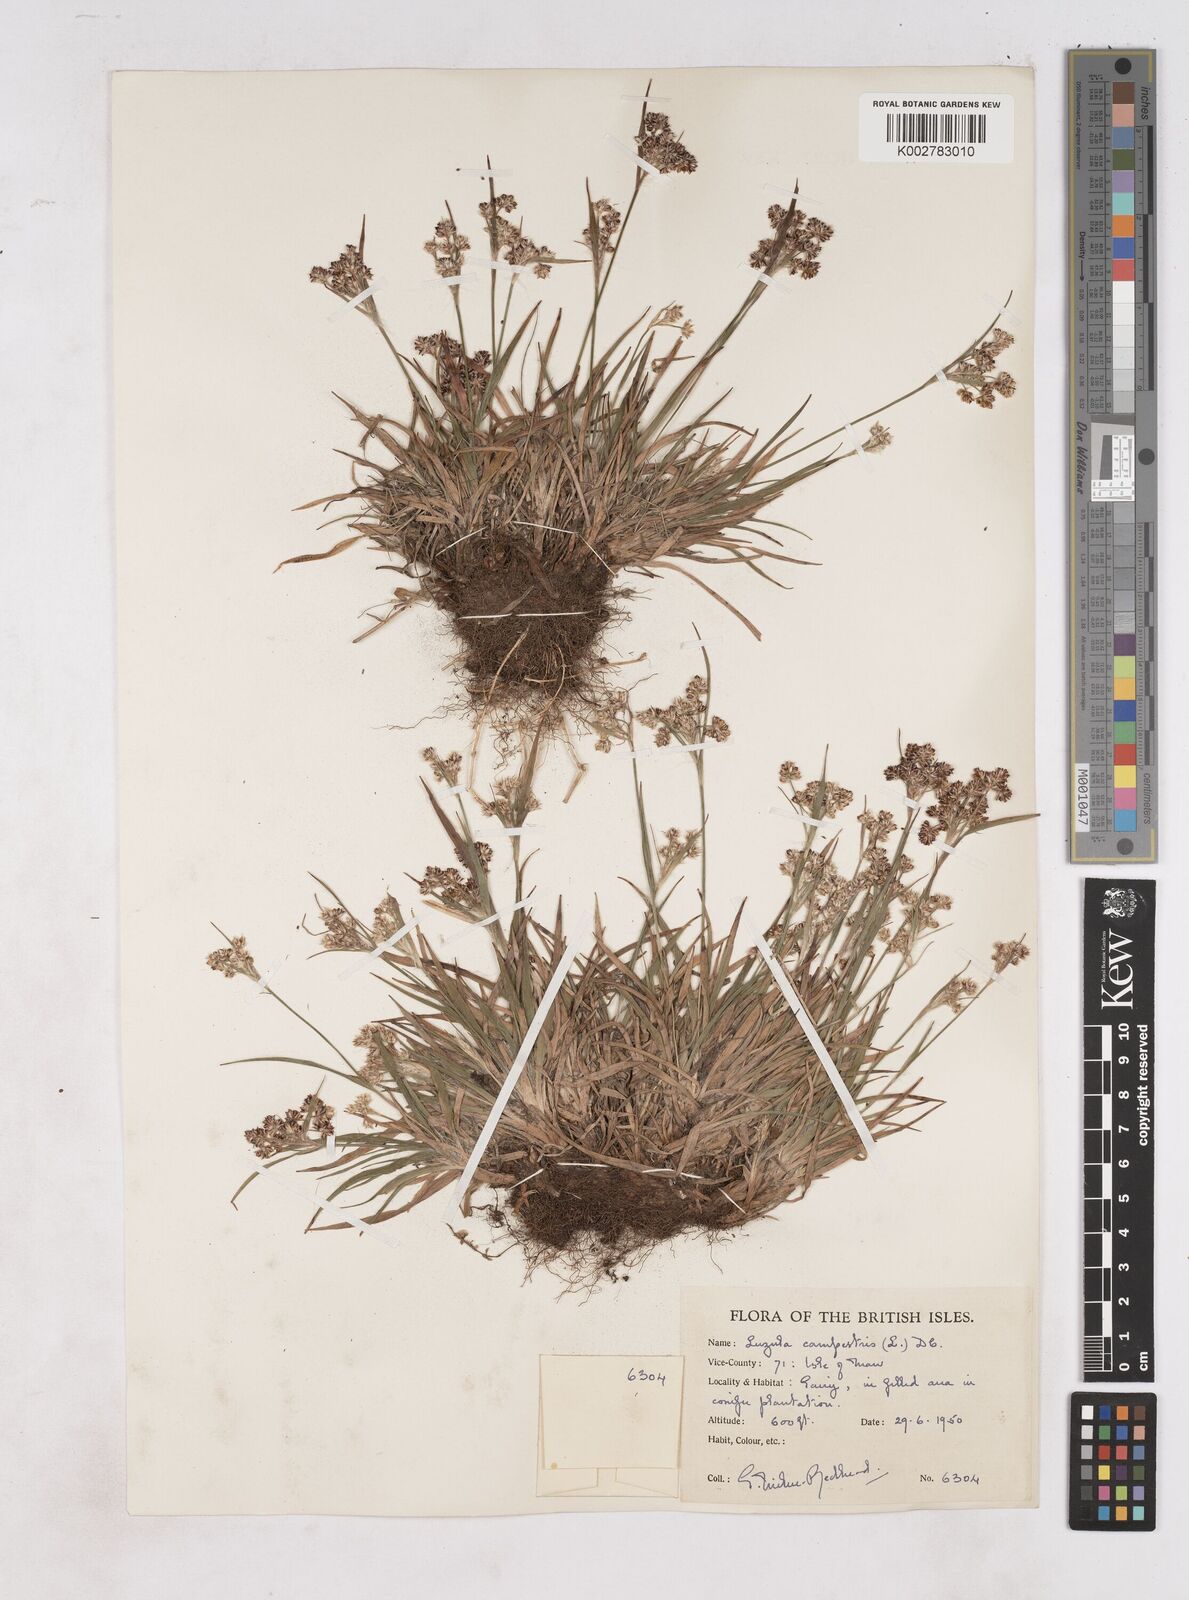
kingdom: Plantae
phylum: Tracheophyta
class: Liliopsida
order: Poales
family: Juncaceae
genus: Luzula
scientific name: Luzula campestris
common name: Field wood-rush
